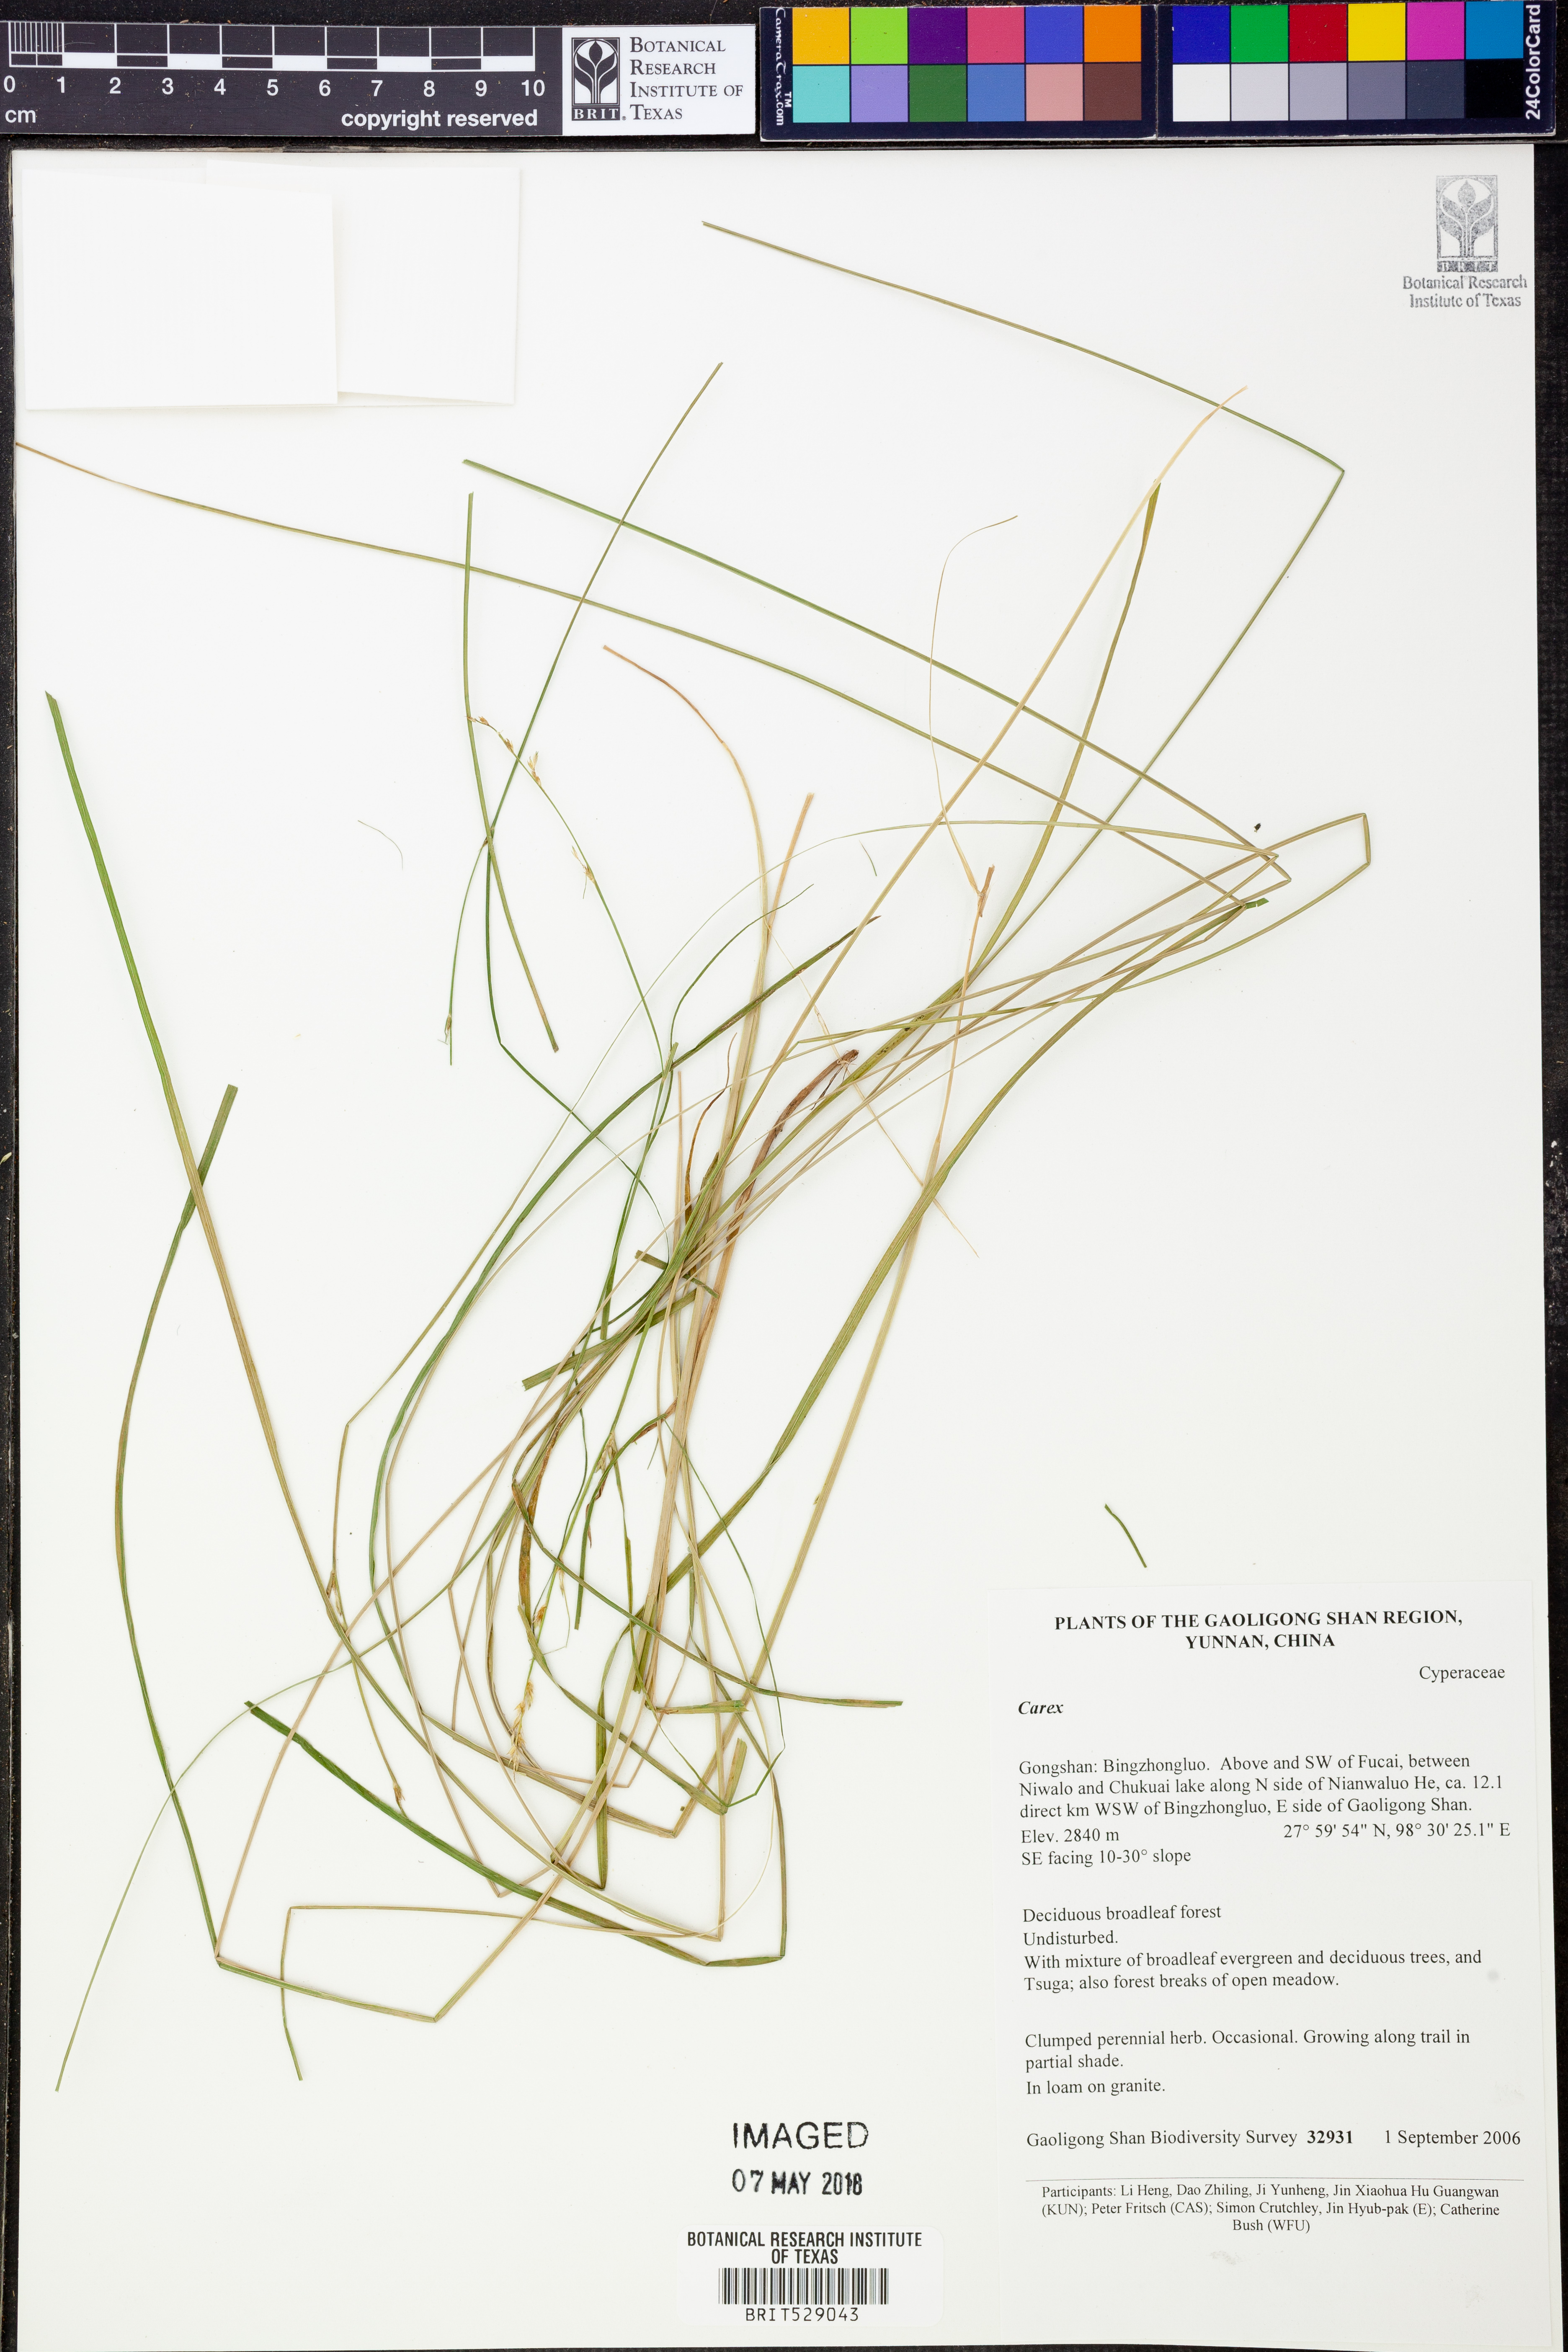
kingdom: Plantae
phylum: Tracheophyta
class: Liliopsida
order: Poales
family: Cyperaceae
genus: Carex
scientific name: Carex
